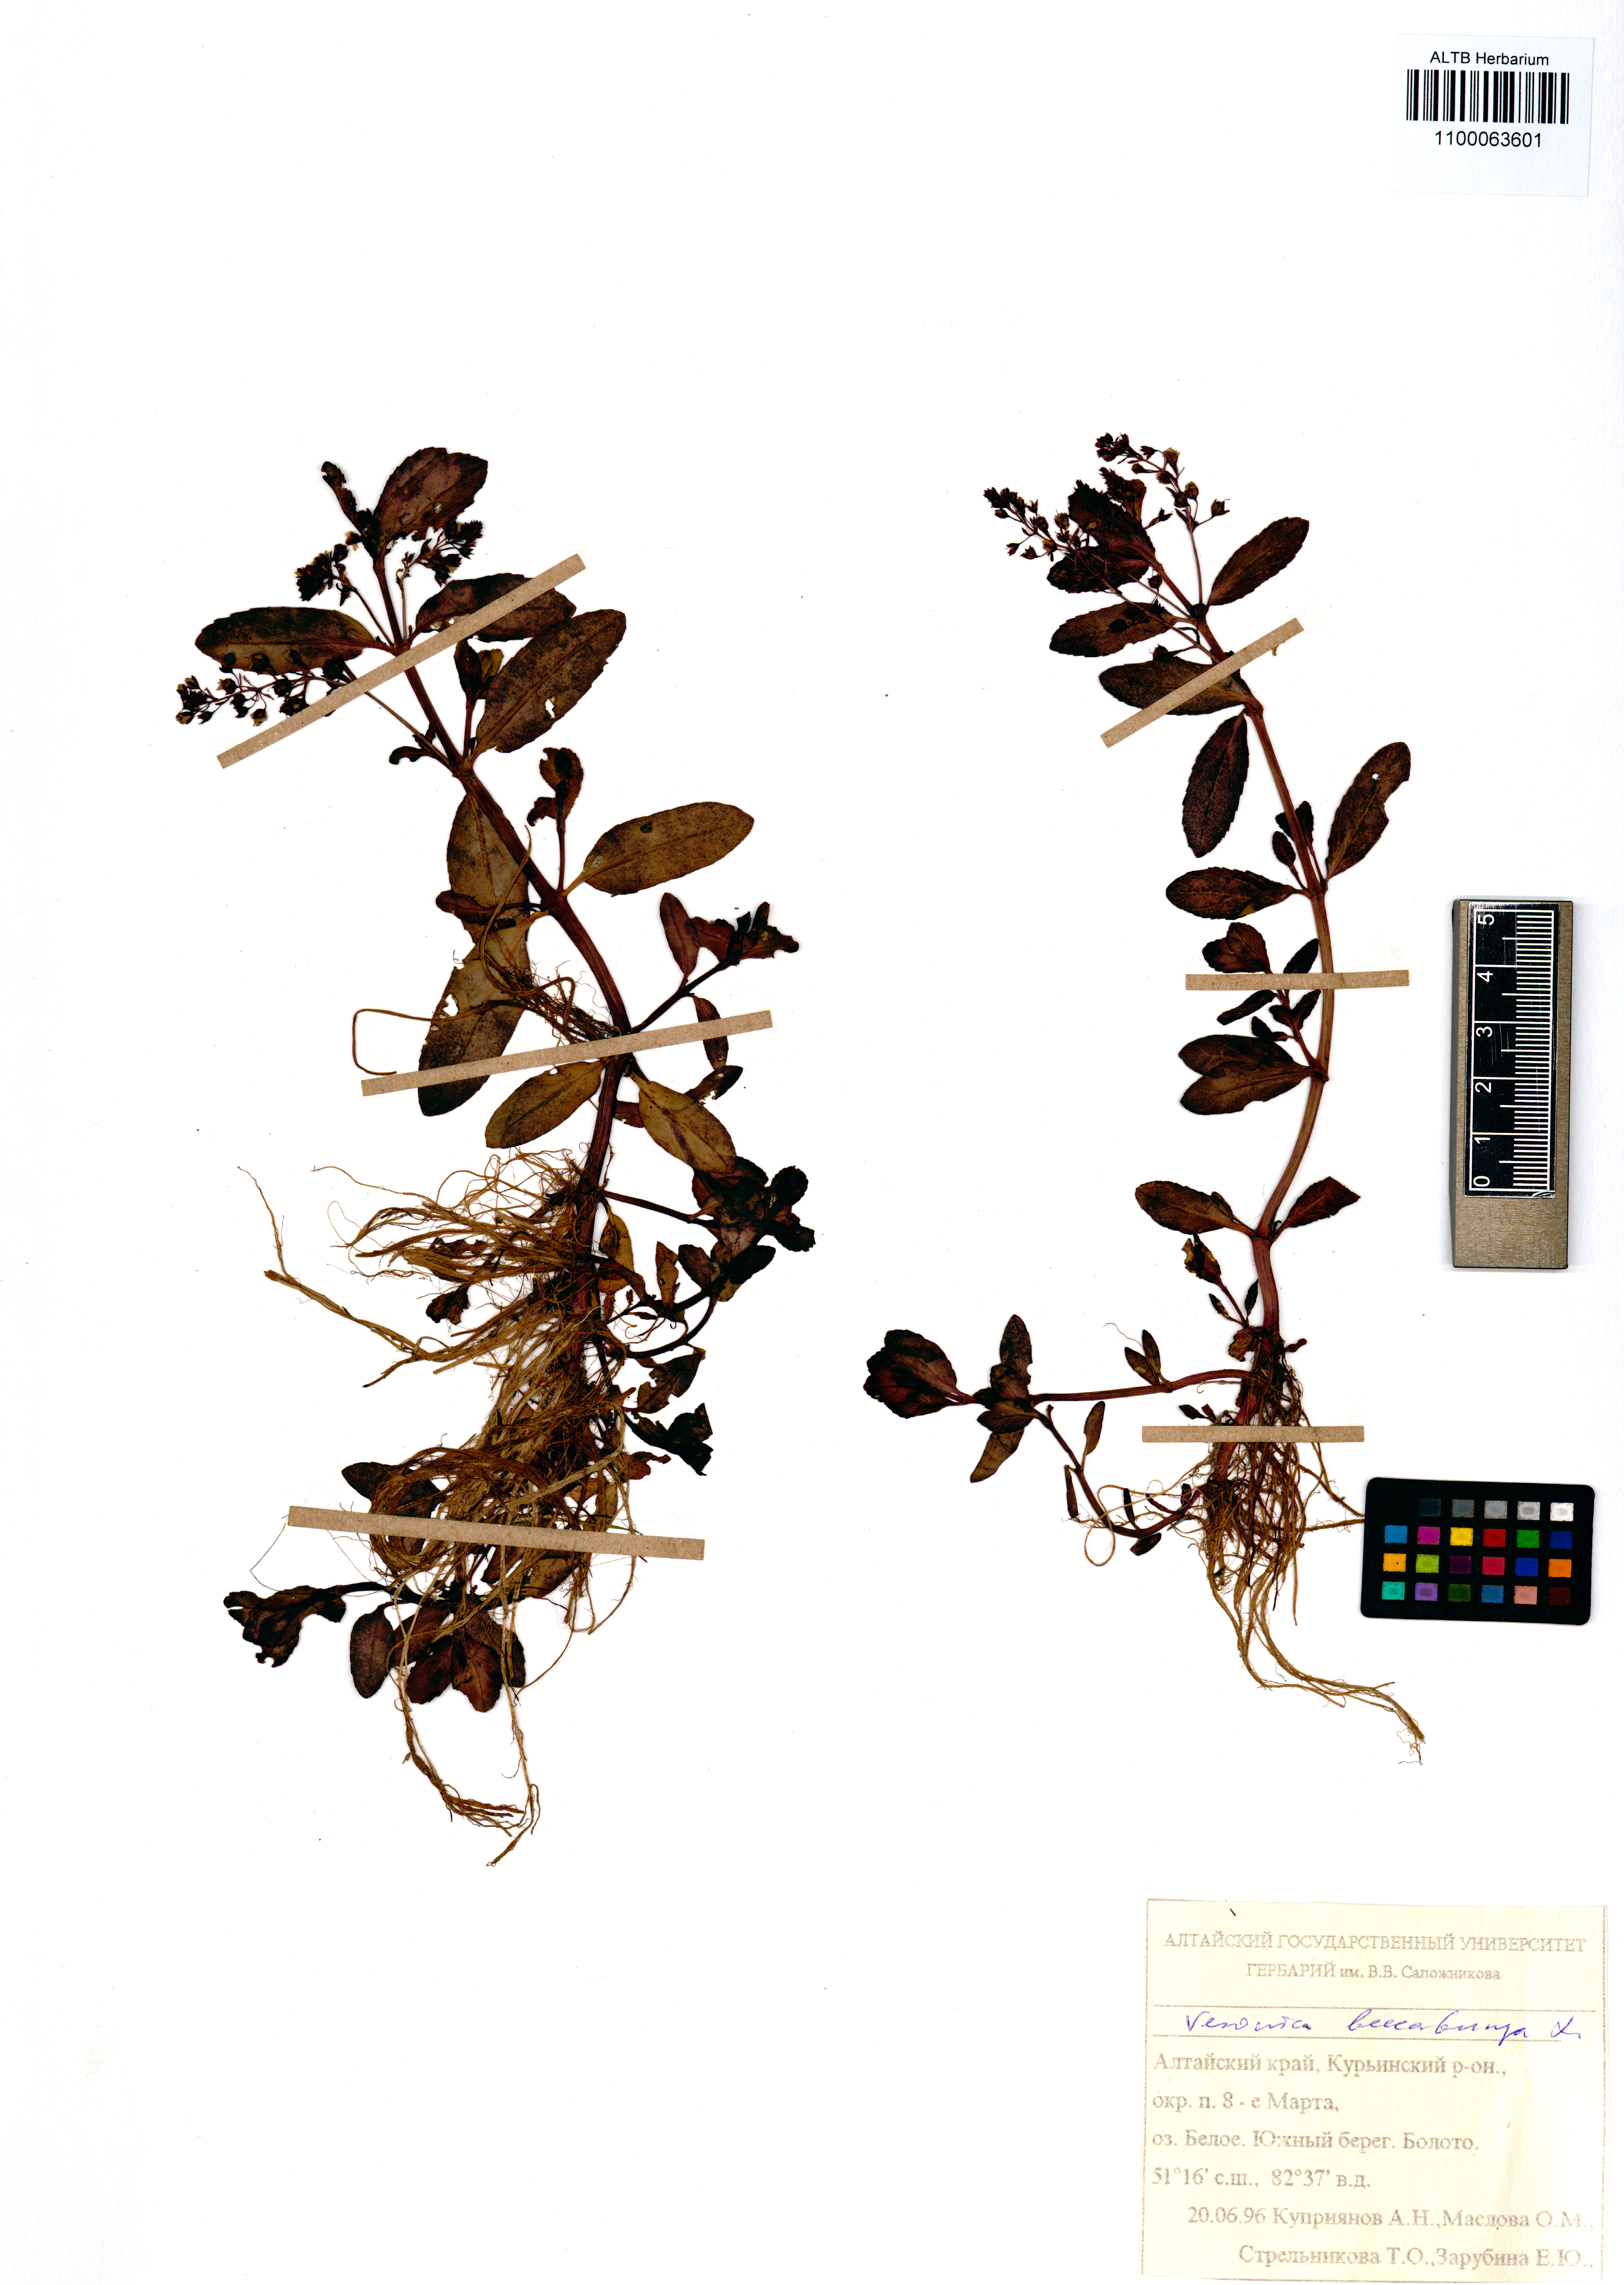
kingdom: Plantae
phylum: Tracheophyta
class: Magnoliopsida
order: Lamiales
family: Plantaginaceae
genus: Veronica
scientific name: Veronica beccabunga
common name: Brooklime
